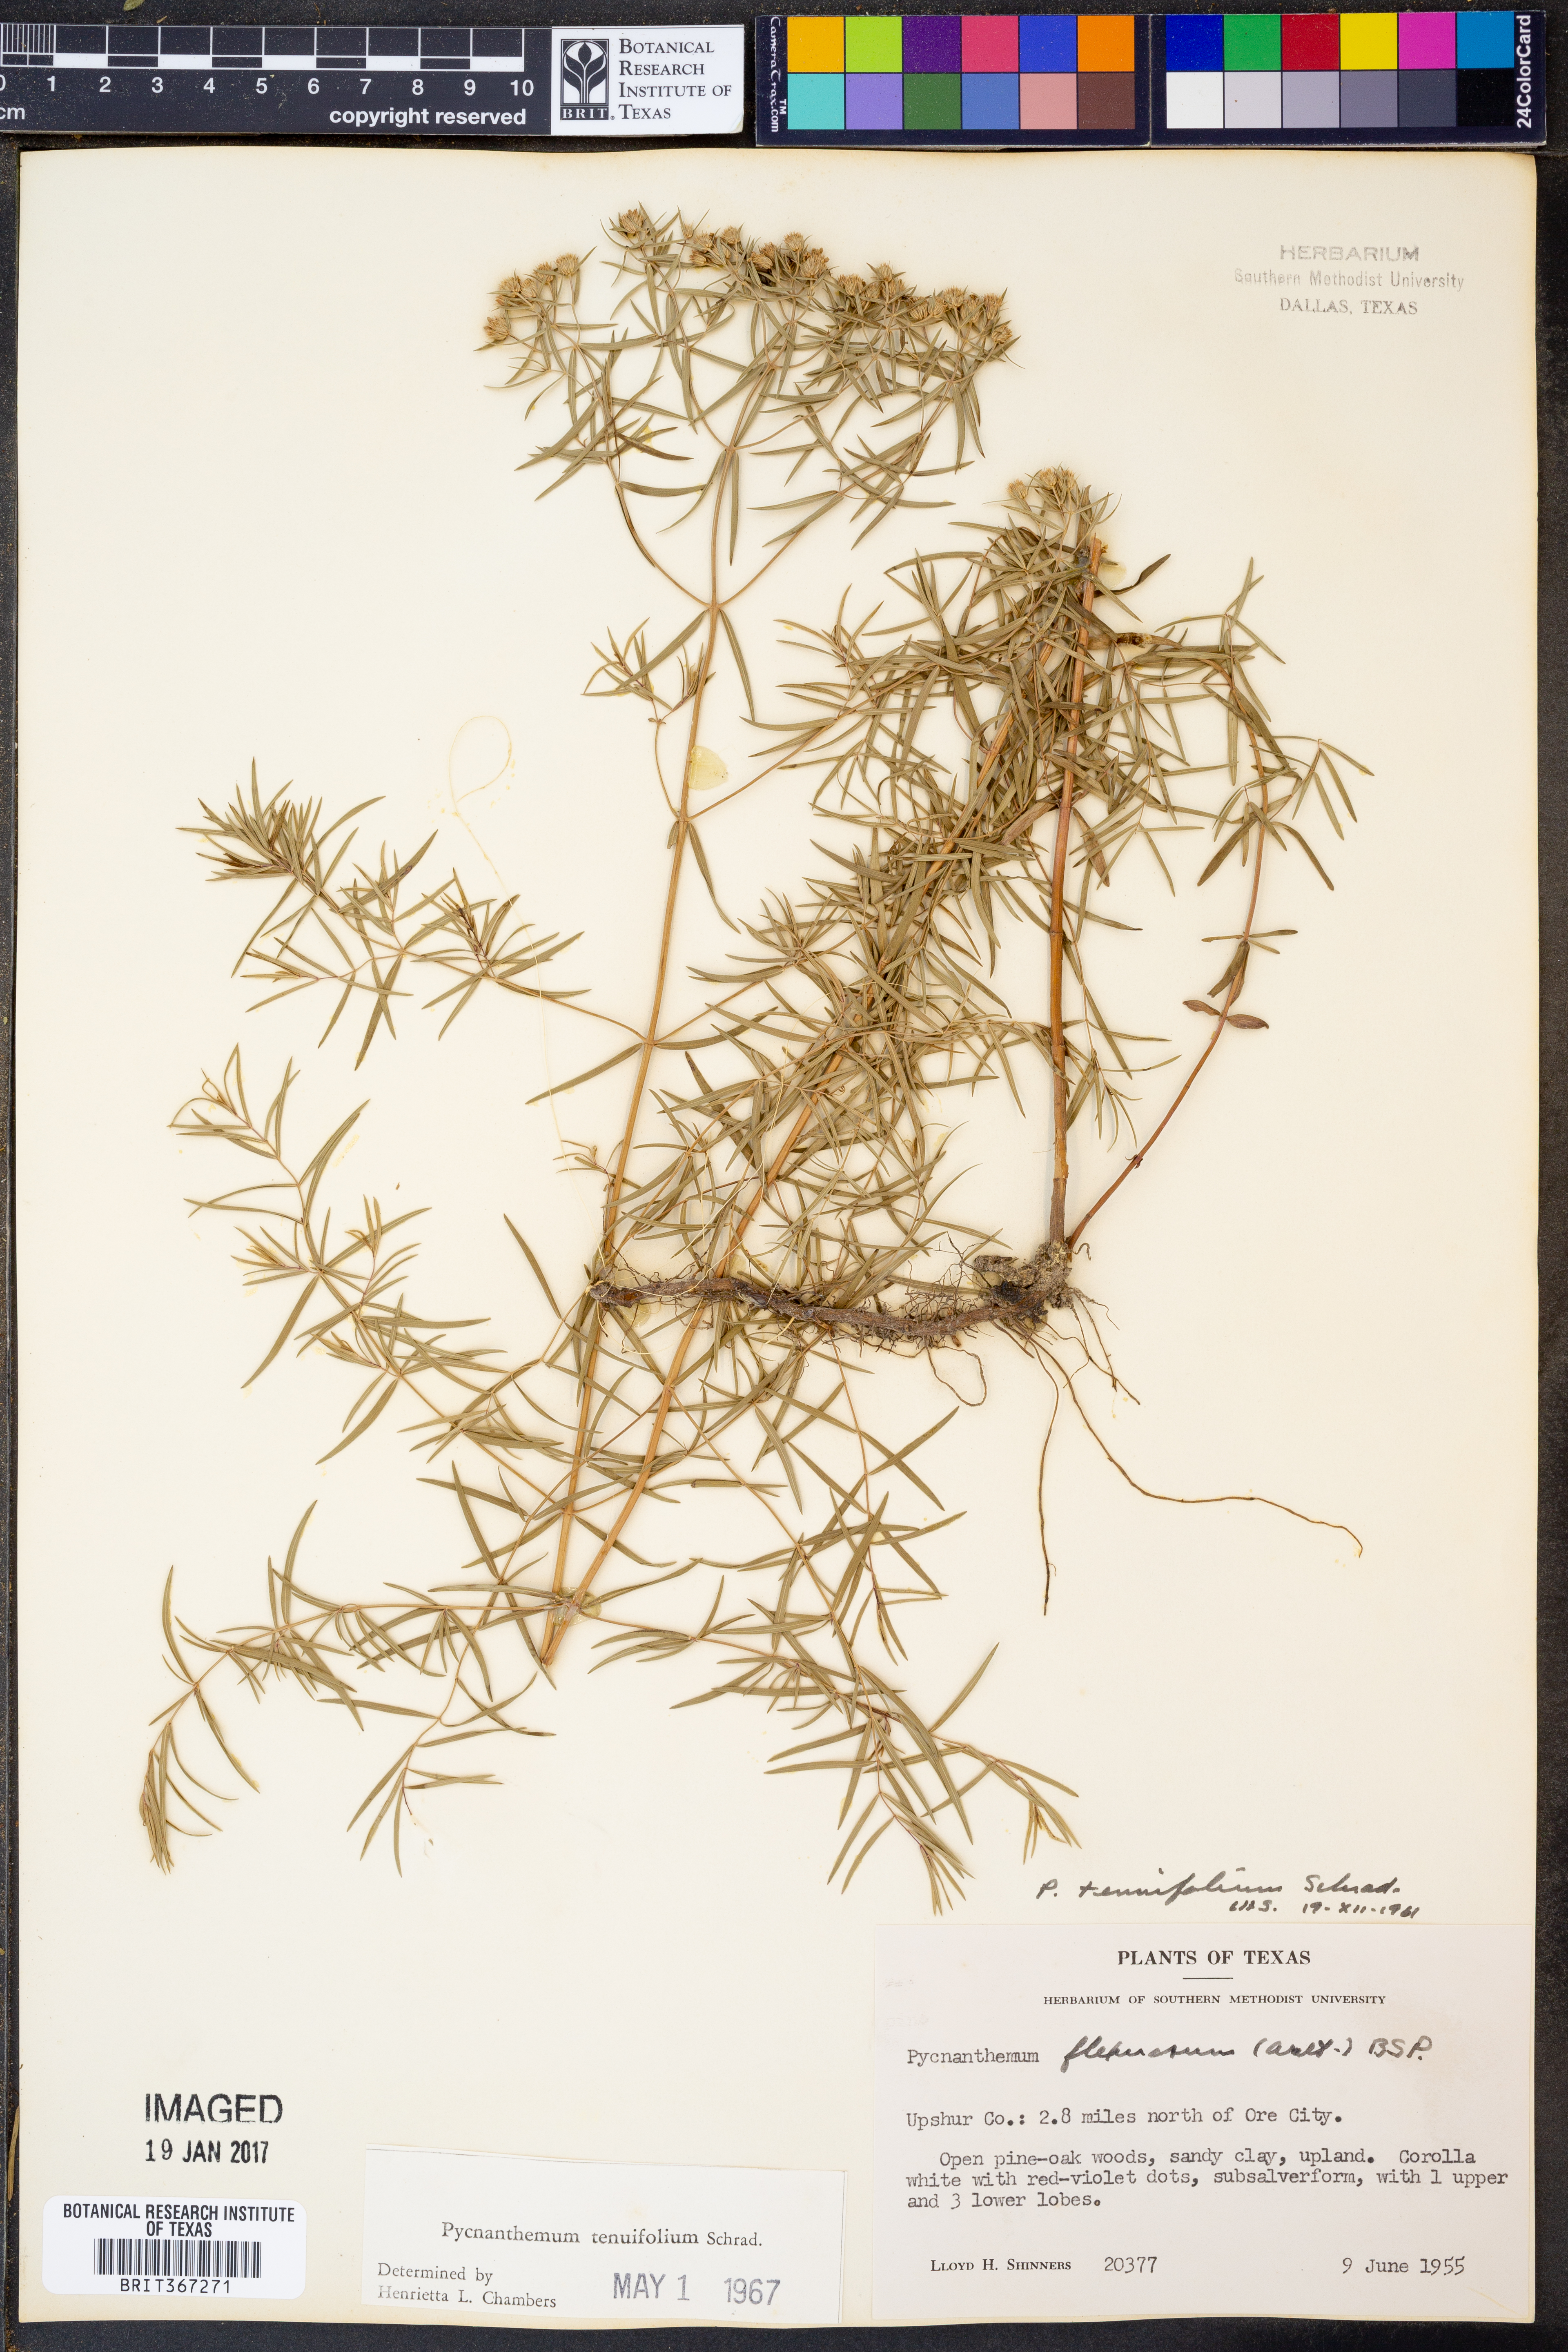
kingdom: Plantae
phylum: Tracheophyta
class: Magnoliopsida
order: Lamiales
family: Lamiaceae
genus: Pycnanthemum
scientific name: Pycnanthemum tenuifolium
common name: Narrow-leaf mountain-mint
